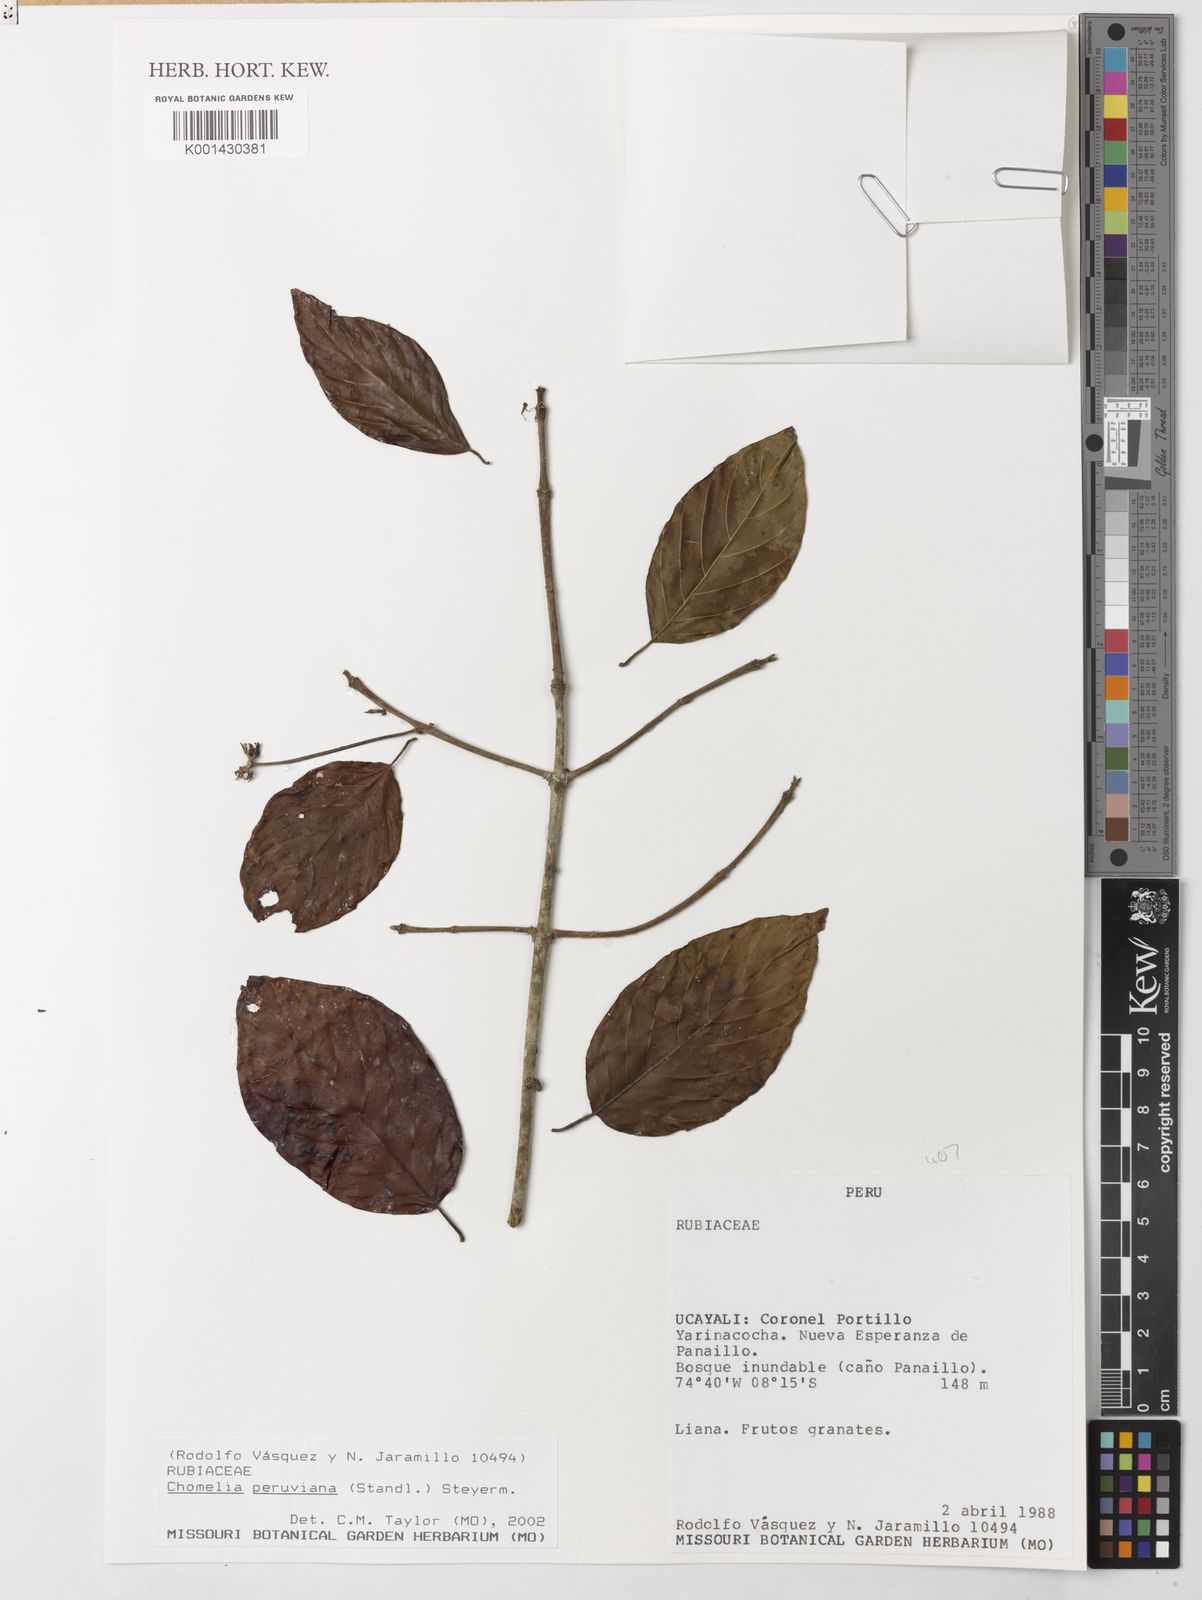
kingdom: Plantae
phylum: Tracheophyta
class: Magnoliopsida
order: Gentianales
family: Rubiaceae
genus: Chomelia
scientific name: Chomelia paniculata
